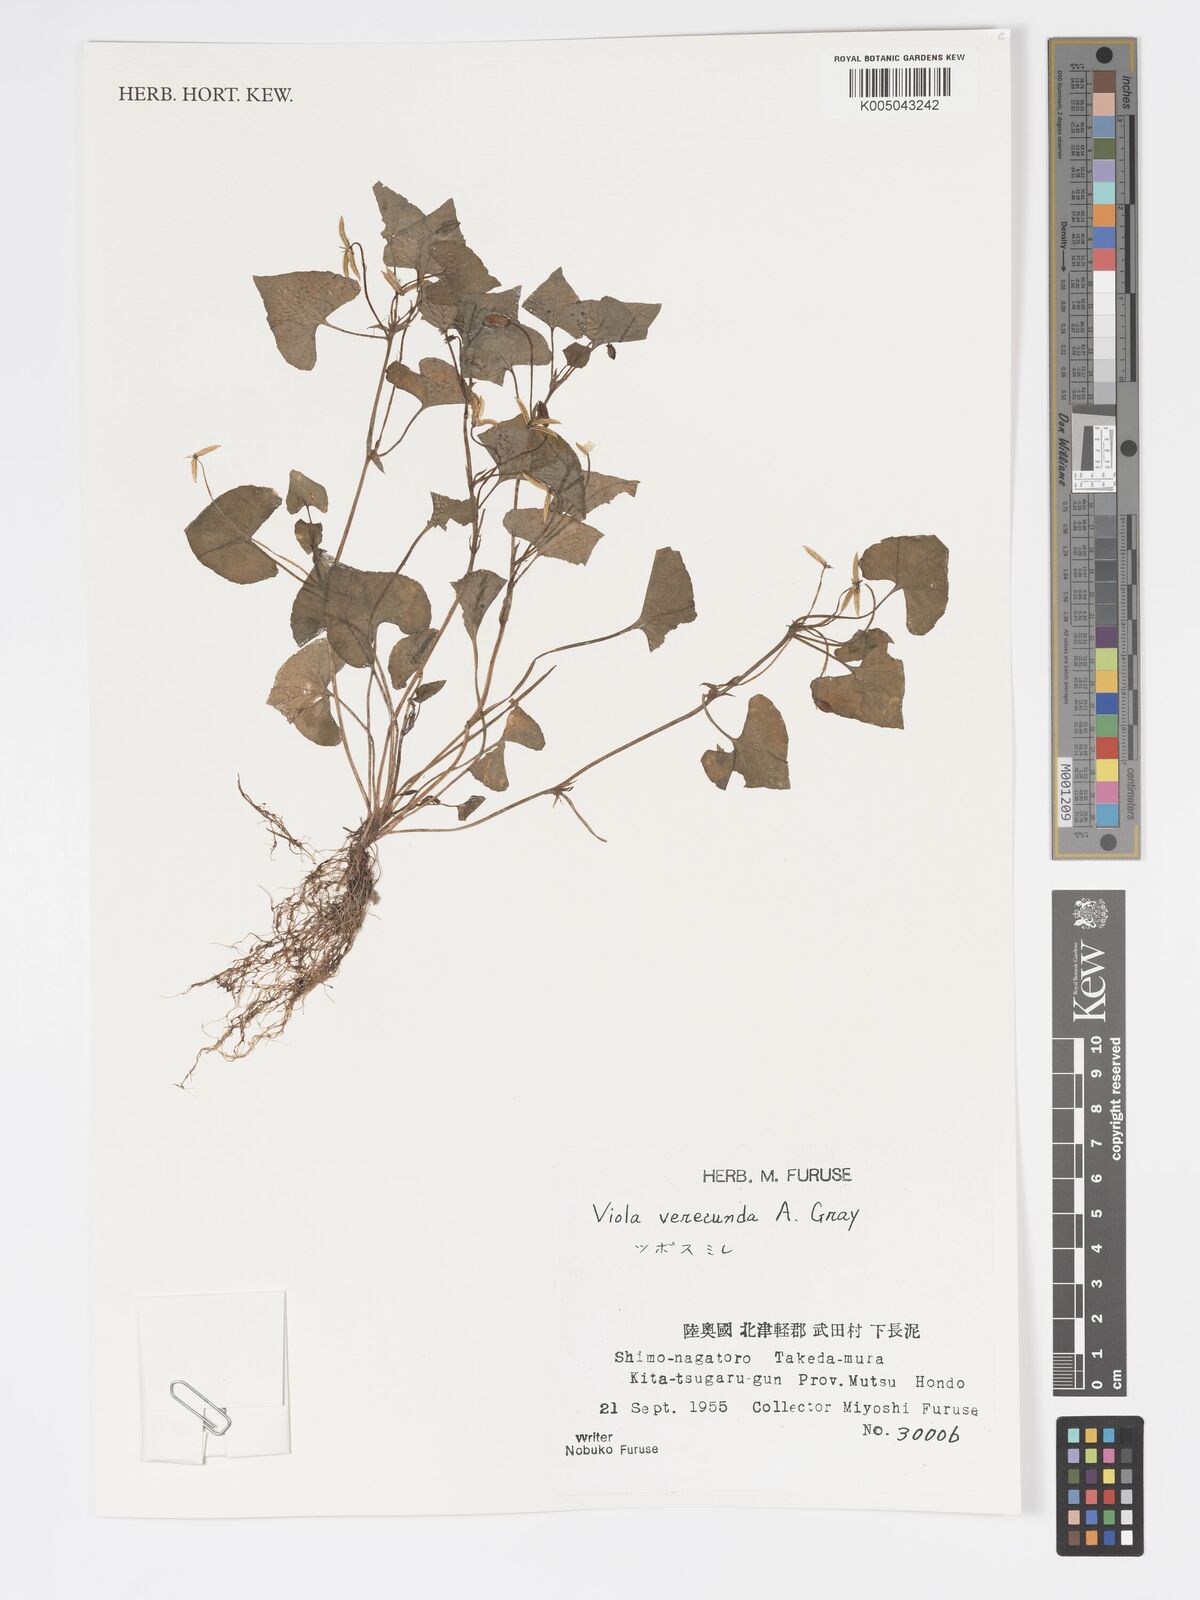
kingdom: Plantae
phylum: Tracheophyta
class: Magnoliopsida
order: Malpighiales
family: Violaceae
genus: Viola
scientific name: Viola hamiltoniana
